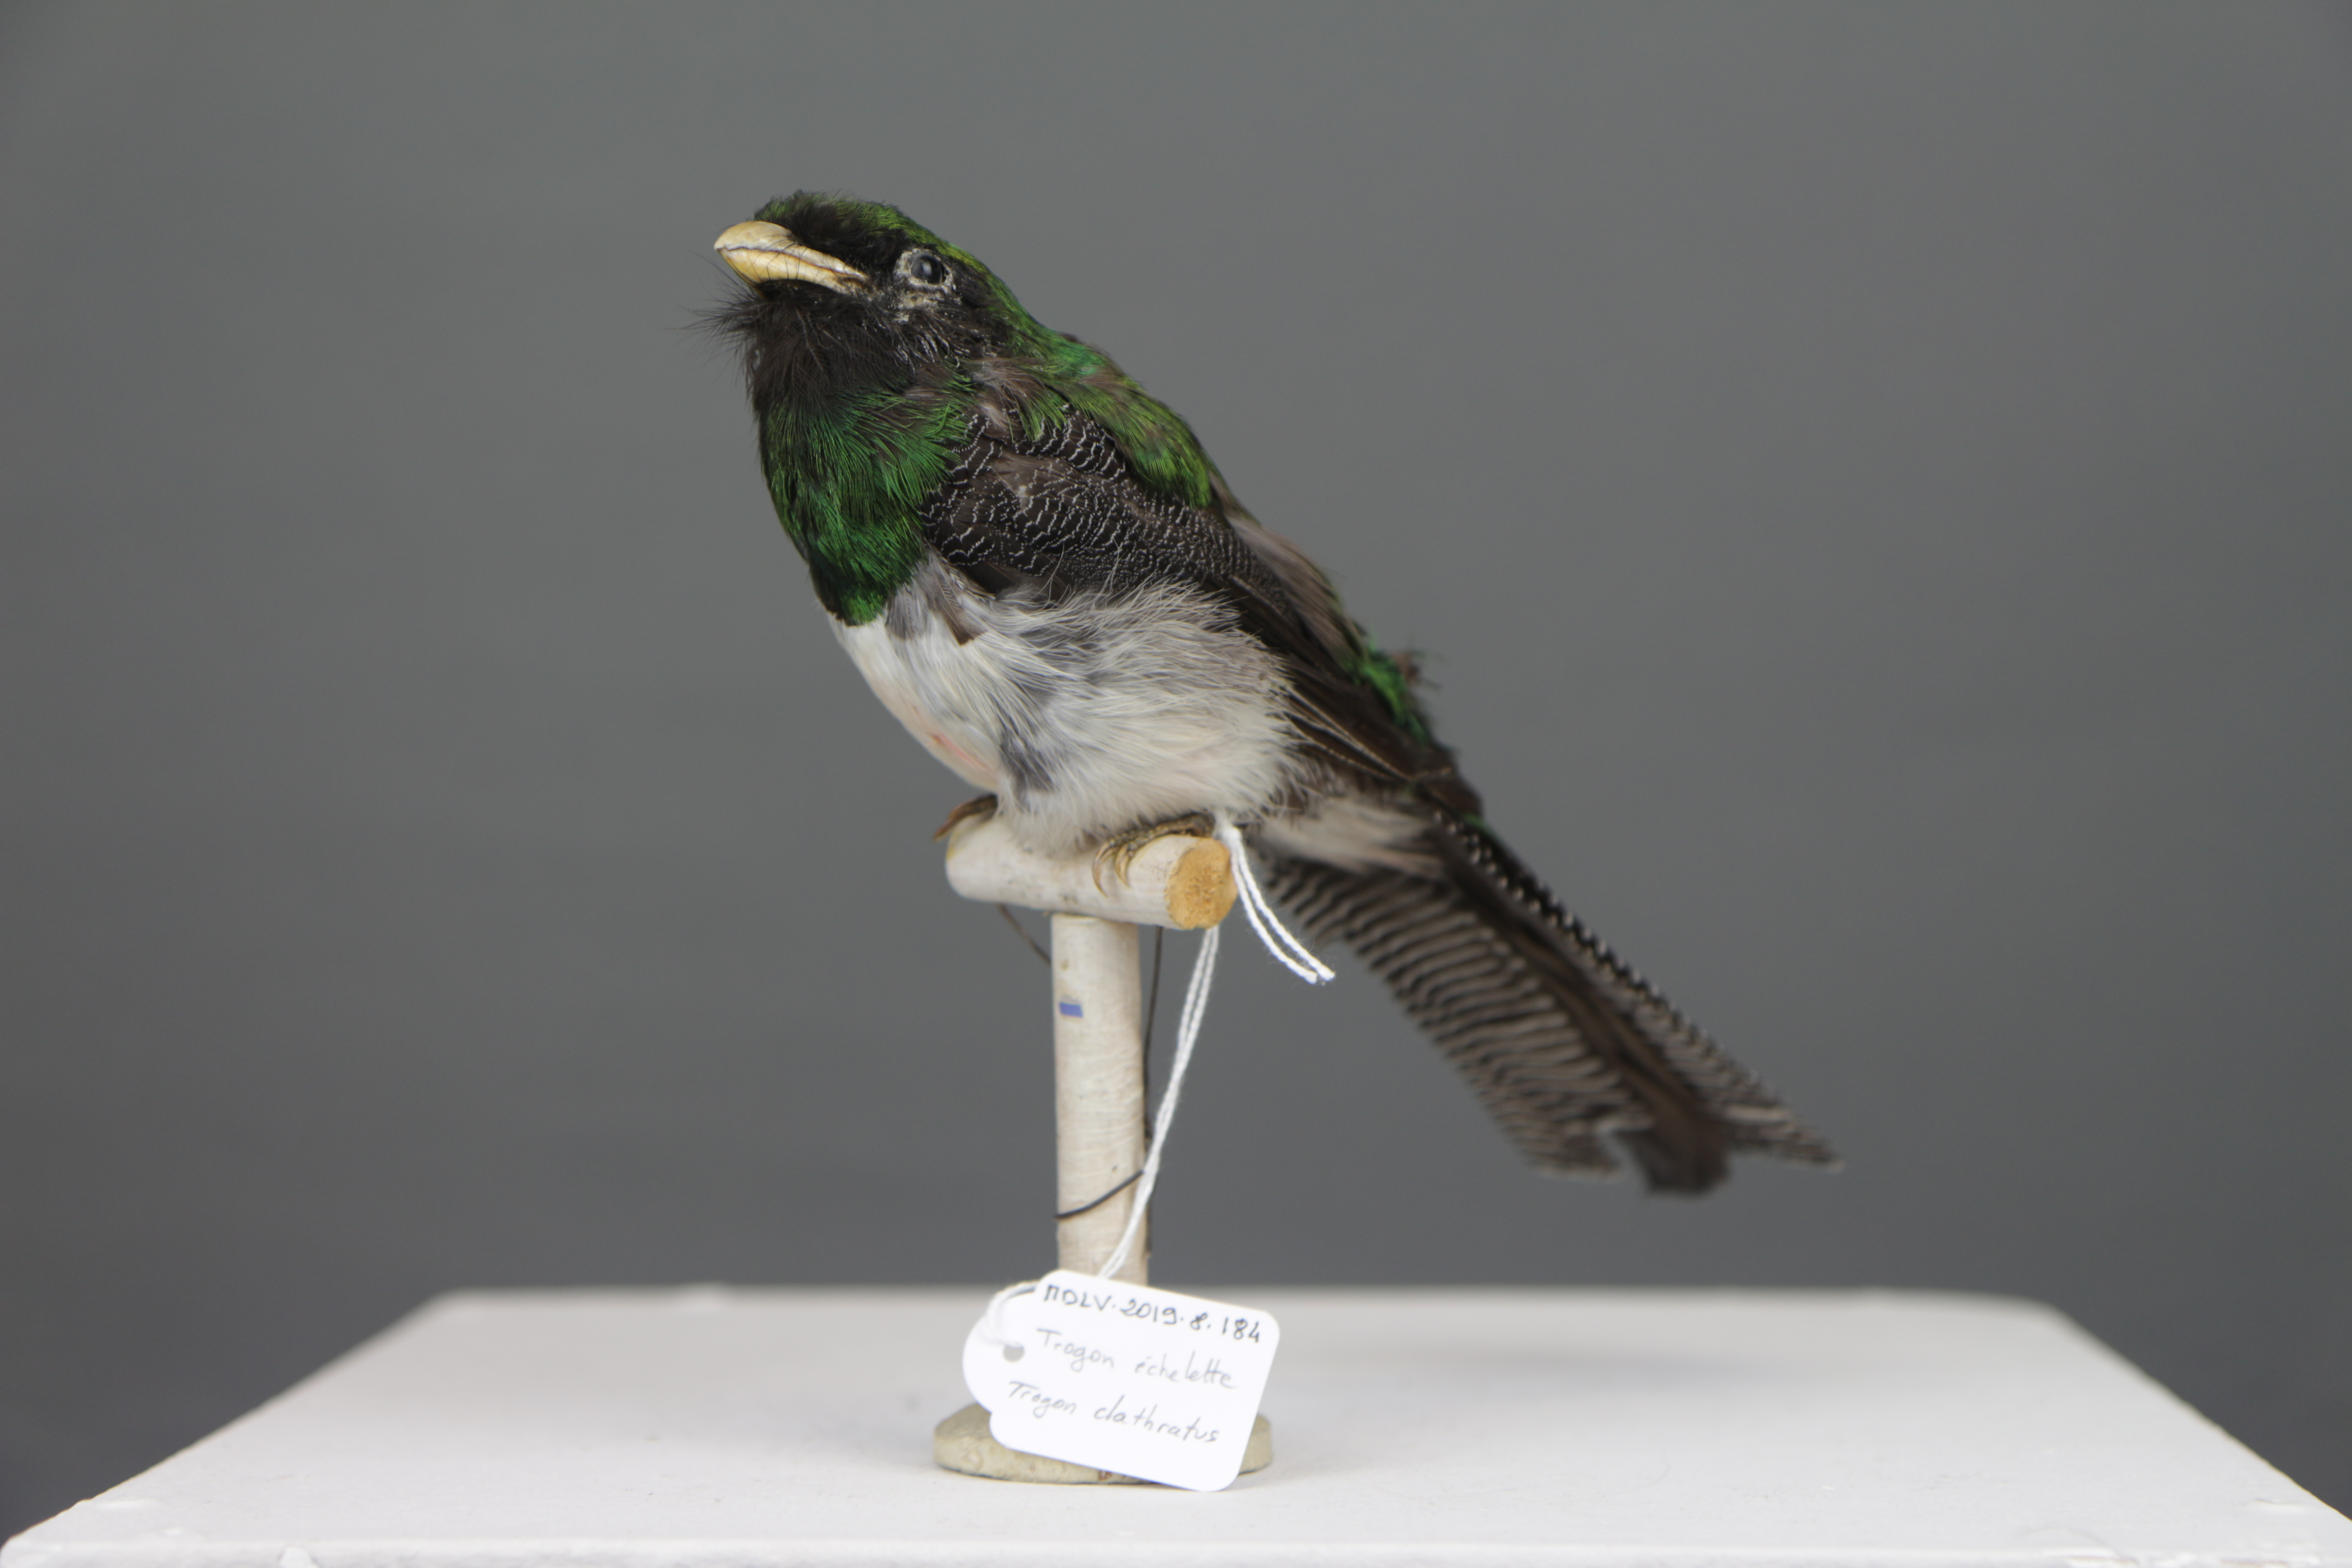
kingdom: Animalia
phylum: Chordata
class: Aves
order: Trogoniformes
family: Trogonidae
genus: Trogon
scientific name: Trogon clathratus
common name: Lattice-tailed trogon
